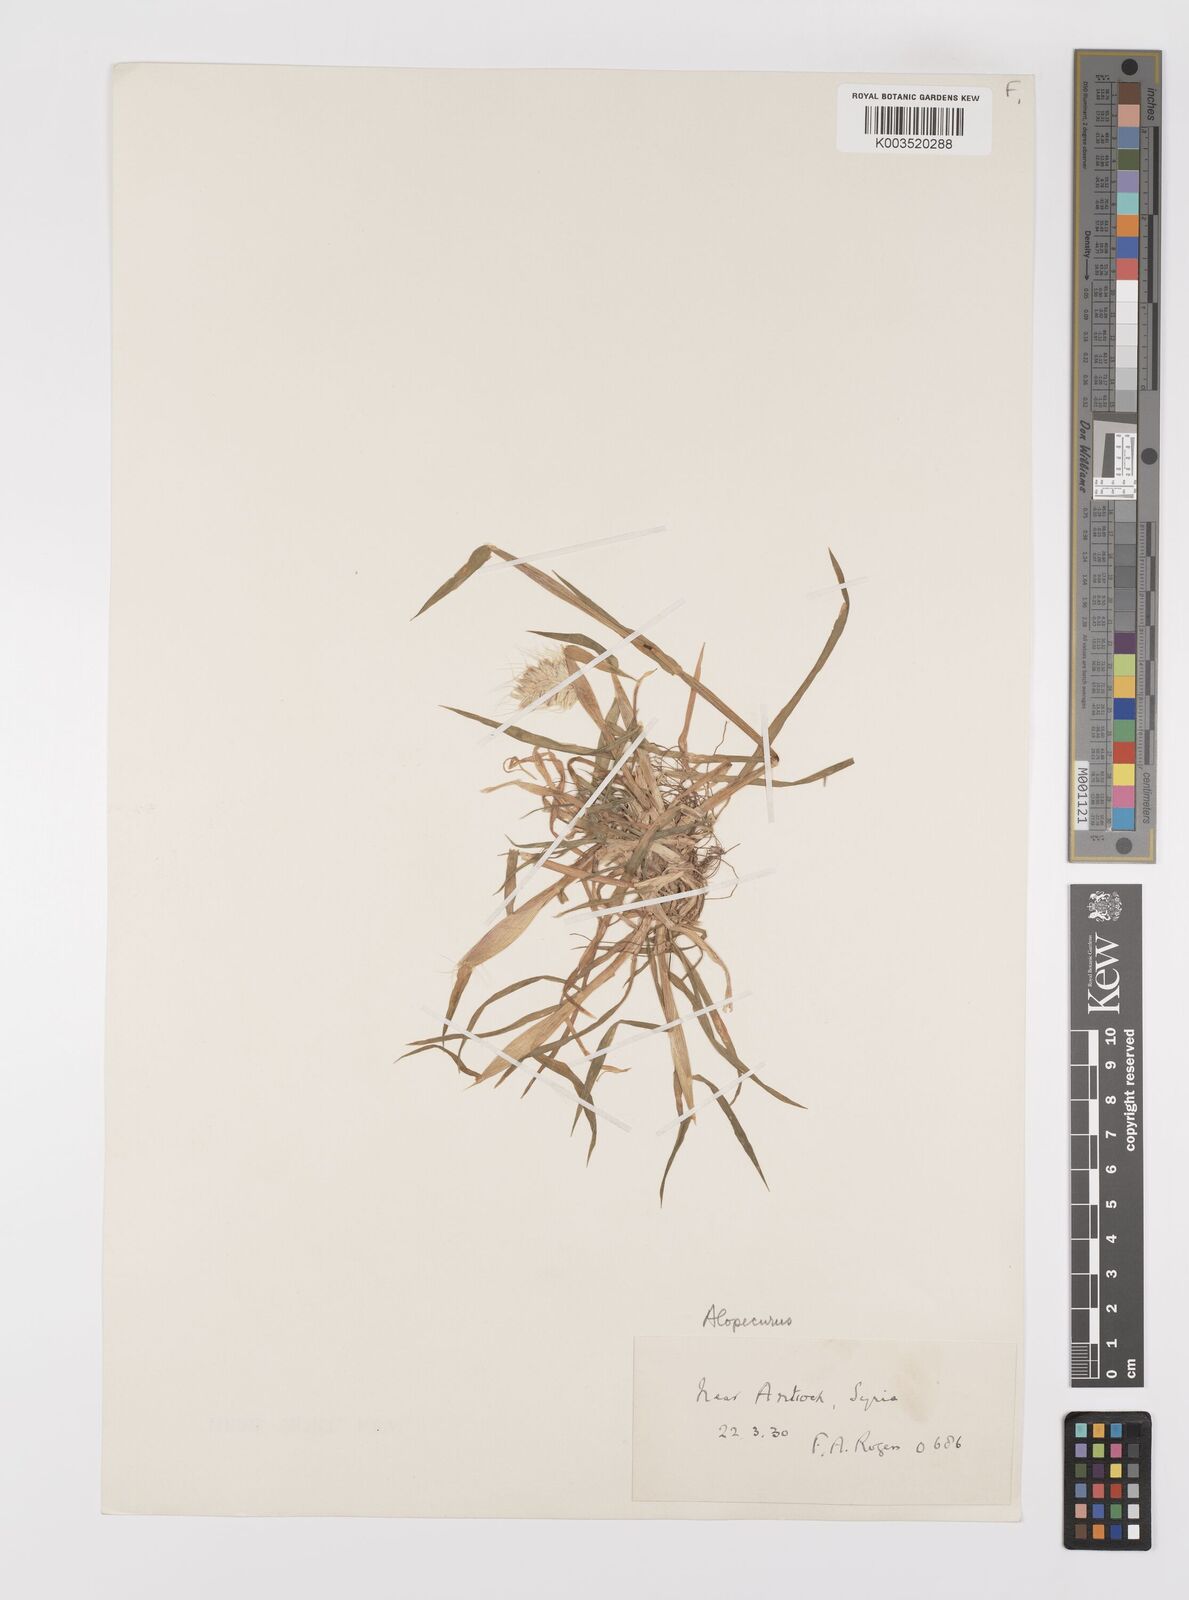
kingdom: Plantae
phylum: Tracheophyta
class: Liliopsida
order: Poales
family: Poaceae
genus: Alopecurus
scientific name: Alopecurus utriculatus
